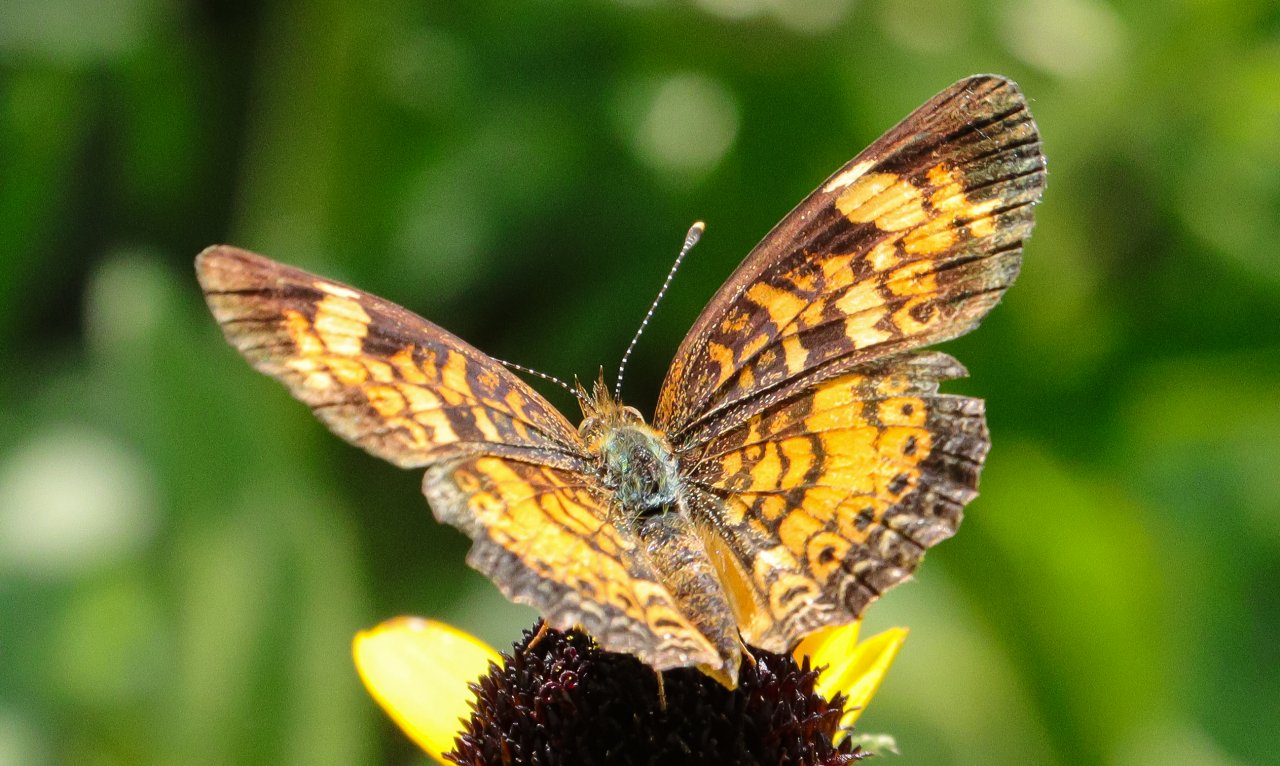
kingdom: Animalia
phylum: Arthropoda
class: Insecta
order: Lepidoptera
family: Nymphalidae
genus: Phyciodes
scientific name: Phyciodes tharos
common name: Pearl Crescent
